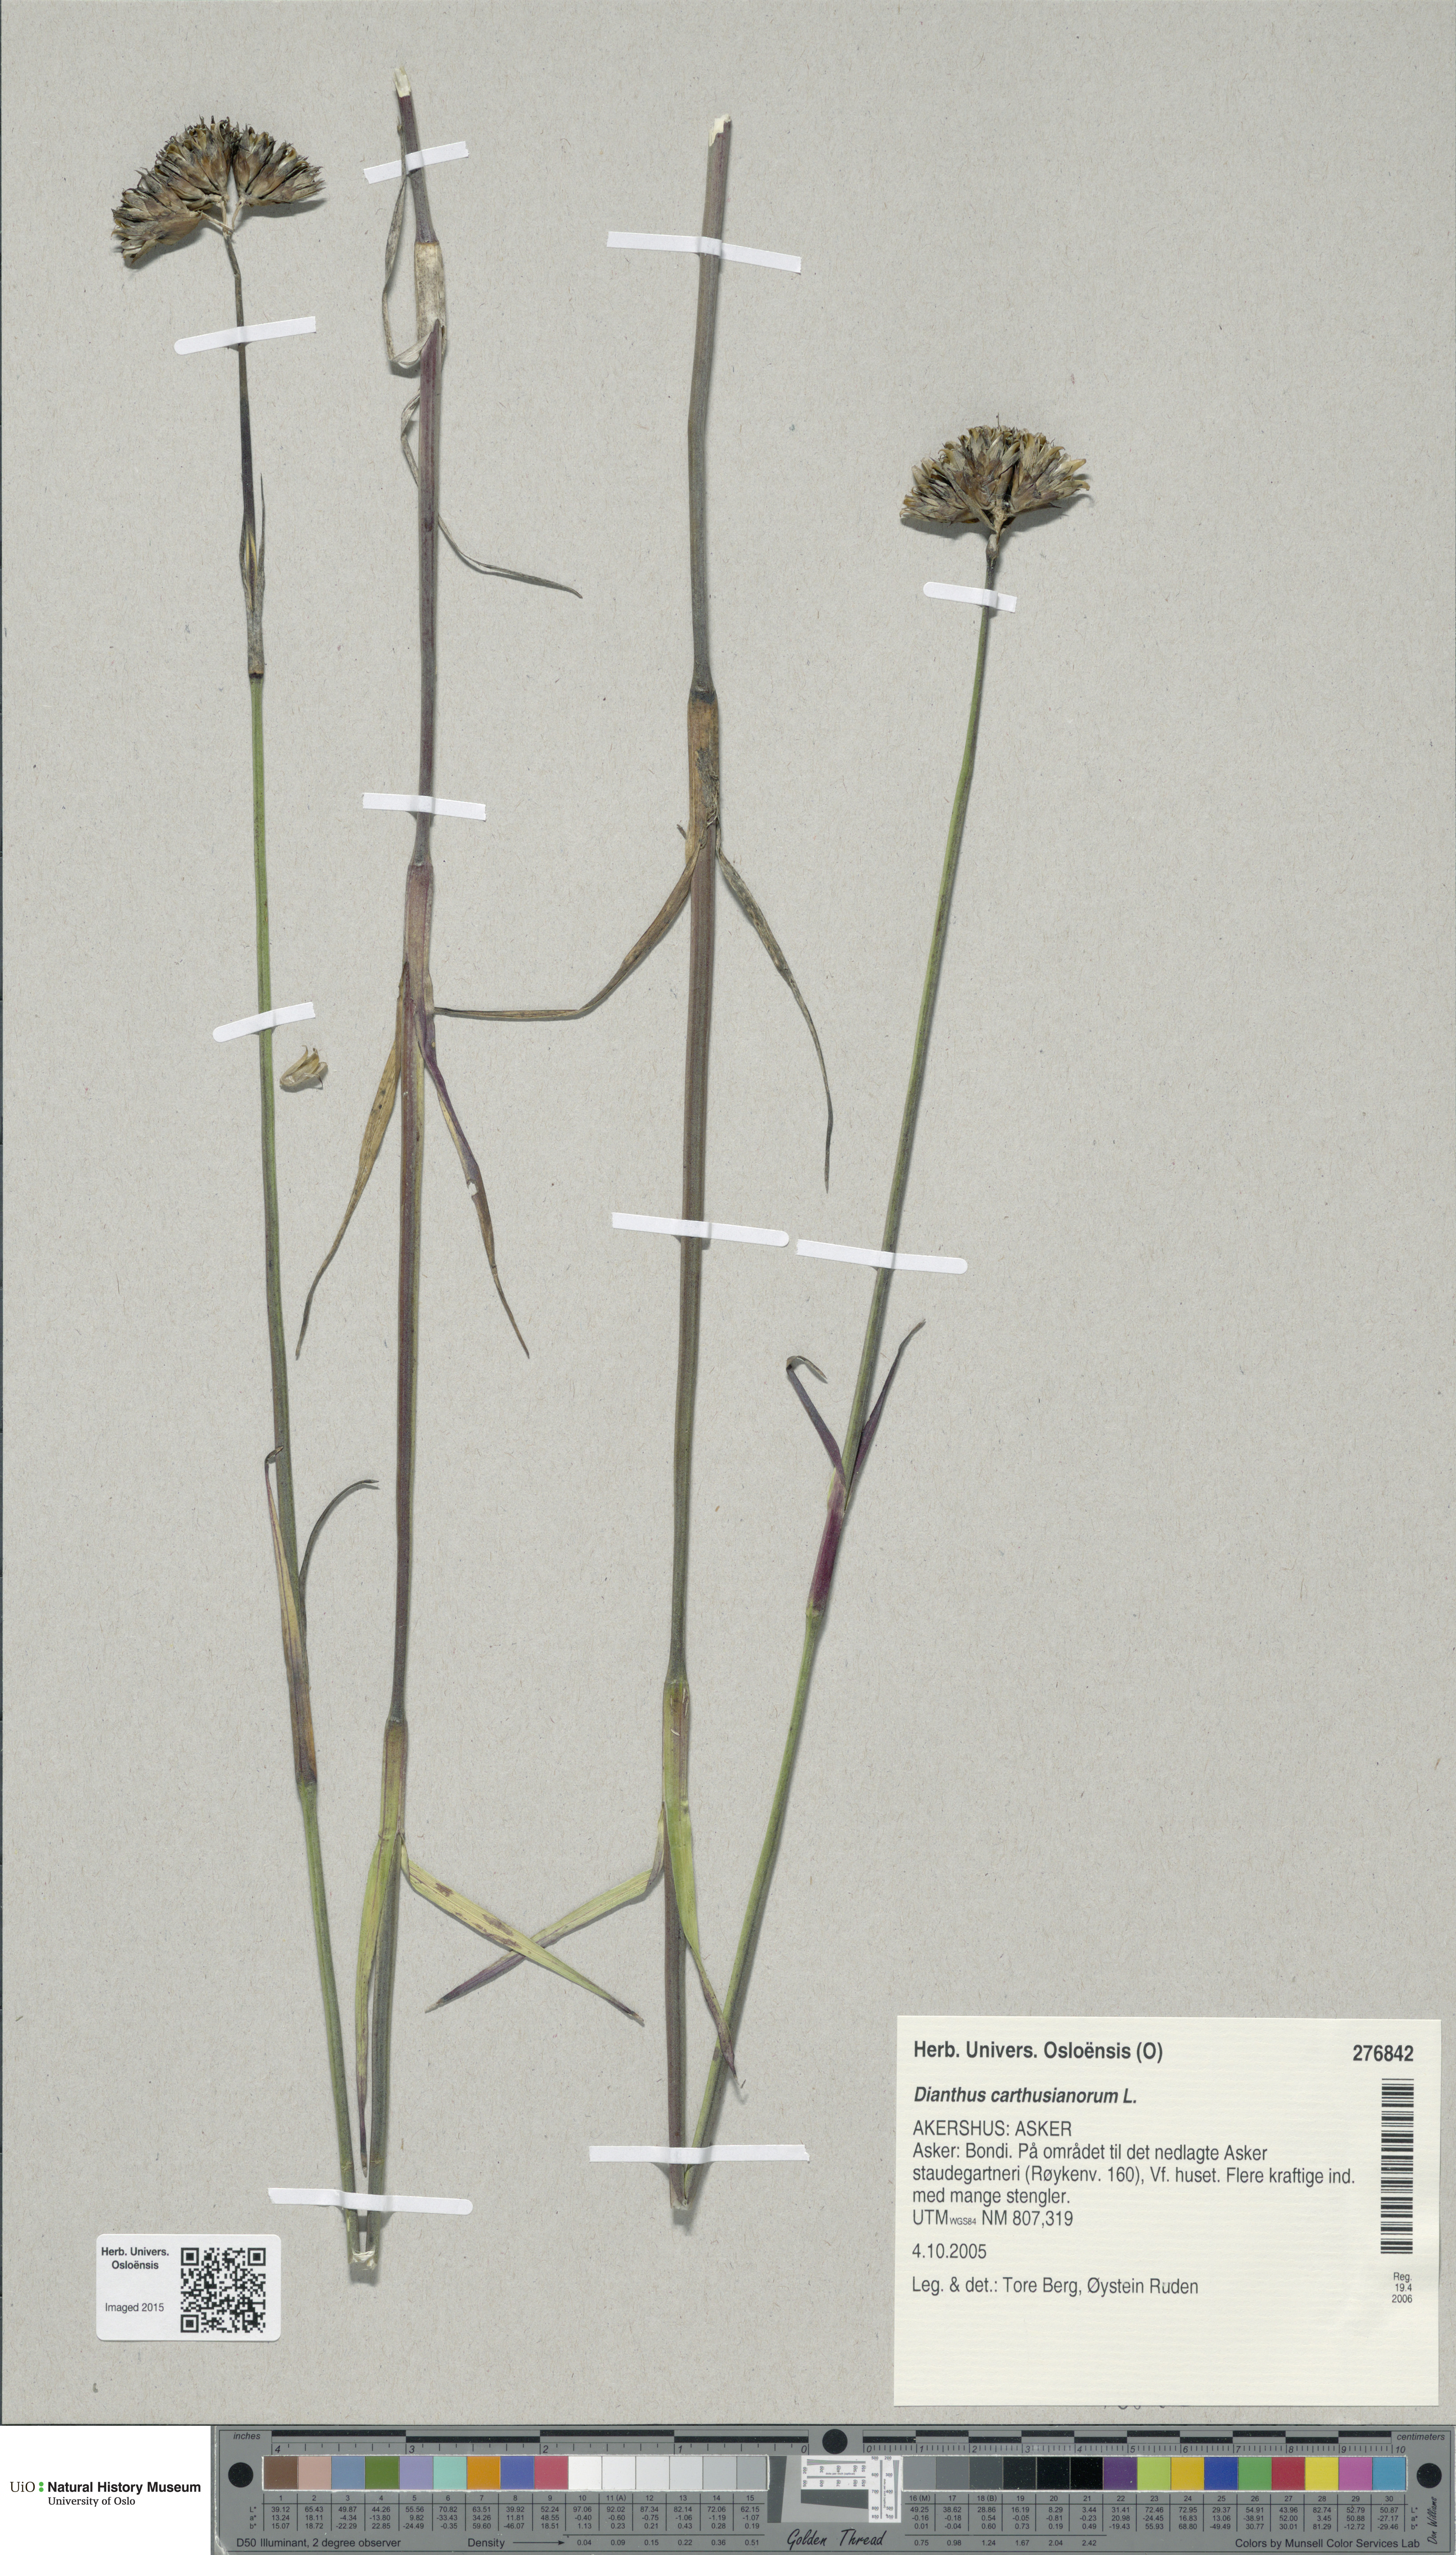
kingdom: Plantae
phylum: Tracheophyta
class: Magnoliopsida
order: Caryophyllales
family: Caryophyllaceae
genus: Dianthus
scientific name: Dianthus carthusianorum
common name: Carthusian pink
